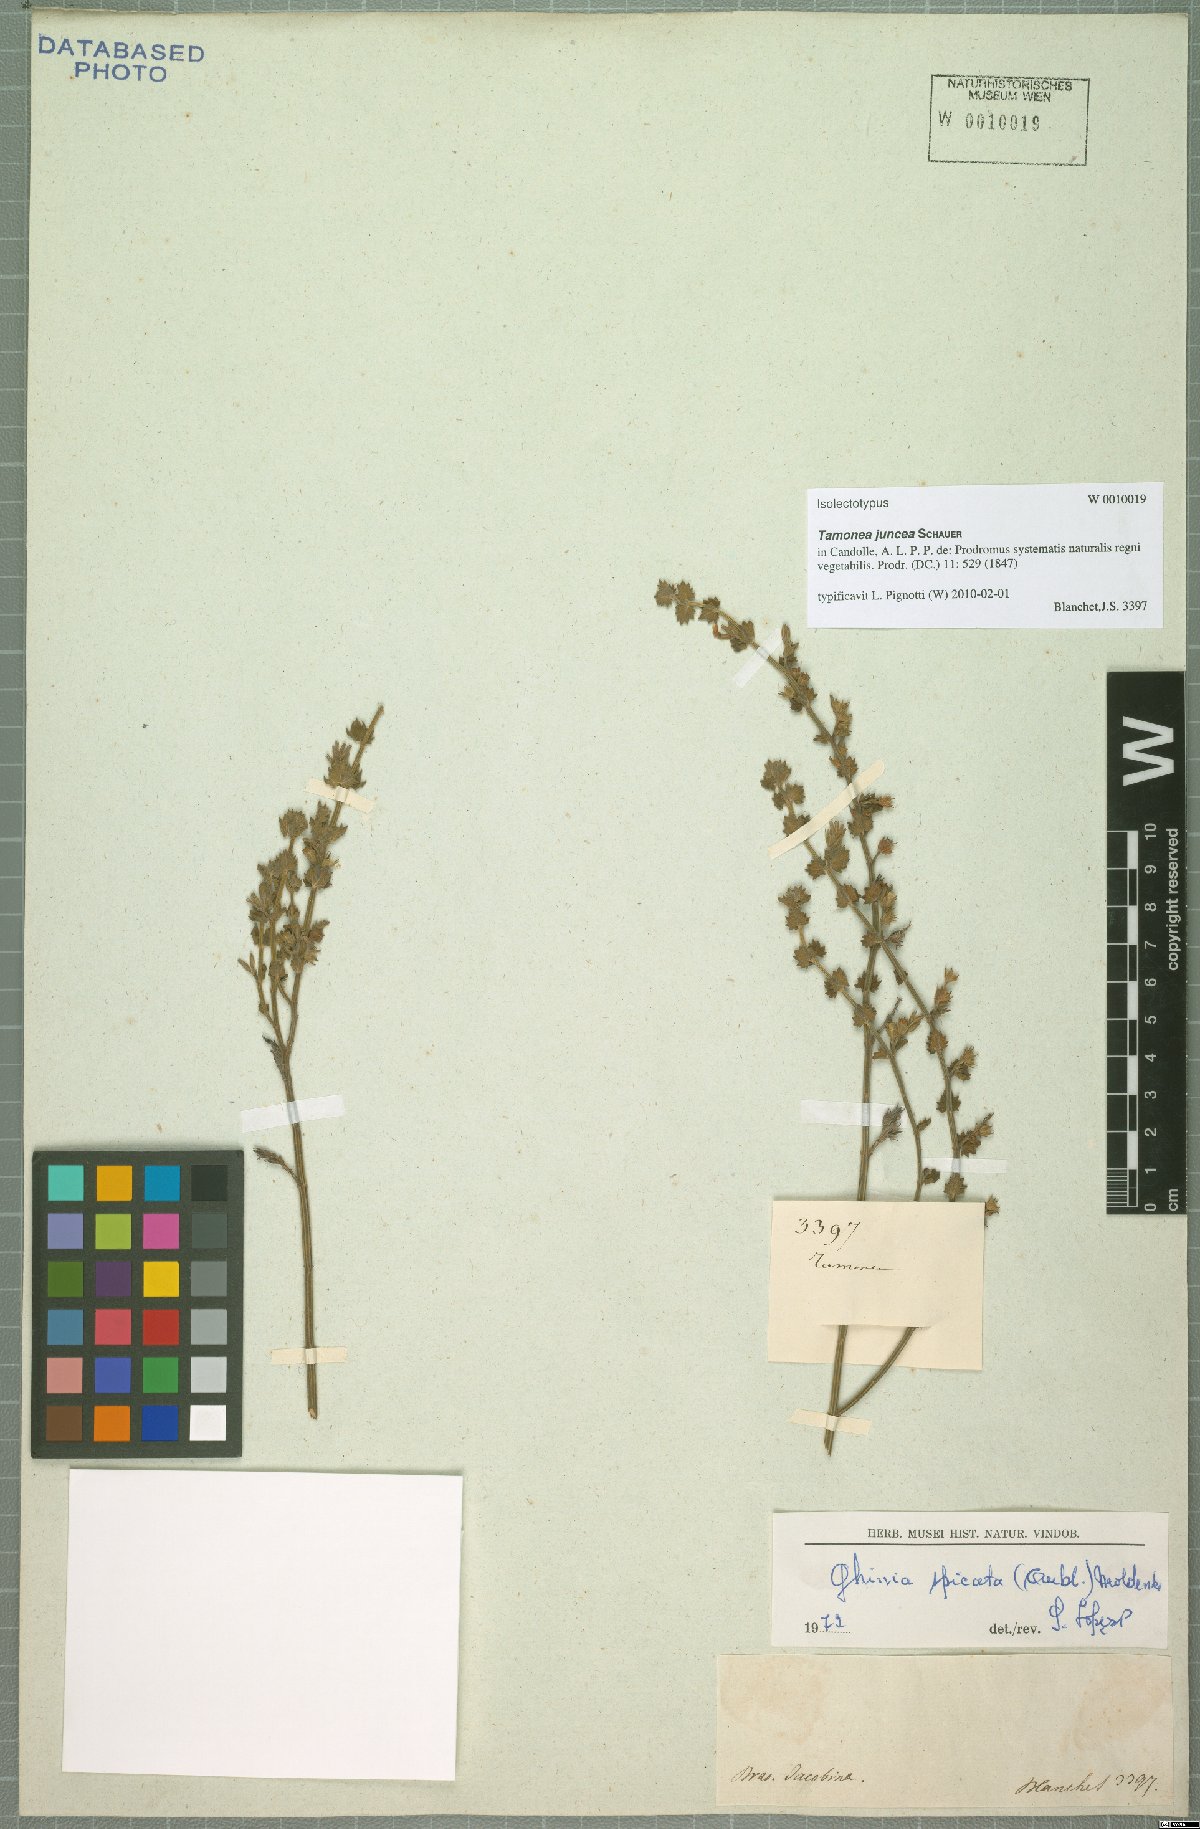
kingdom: Plantae
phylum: Tracheophyta
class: Magnoliopsida
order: Lamiales
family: Verbenaceae
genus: Tamonea
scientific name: Tamonea juncea
